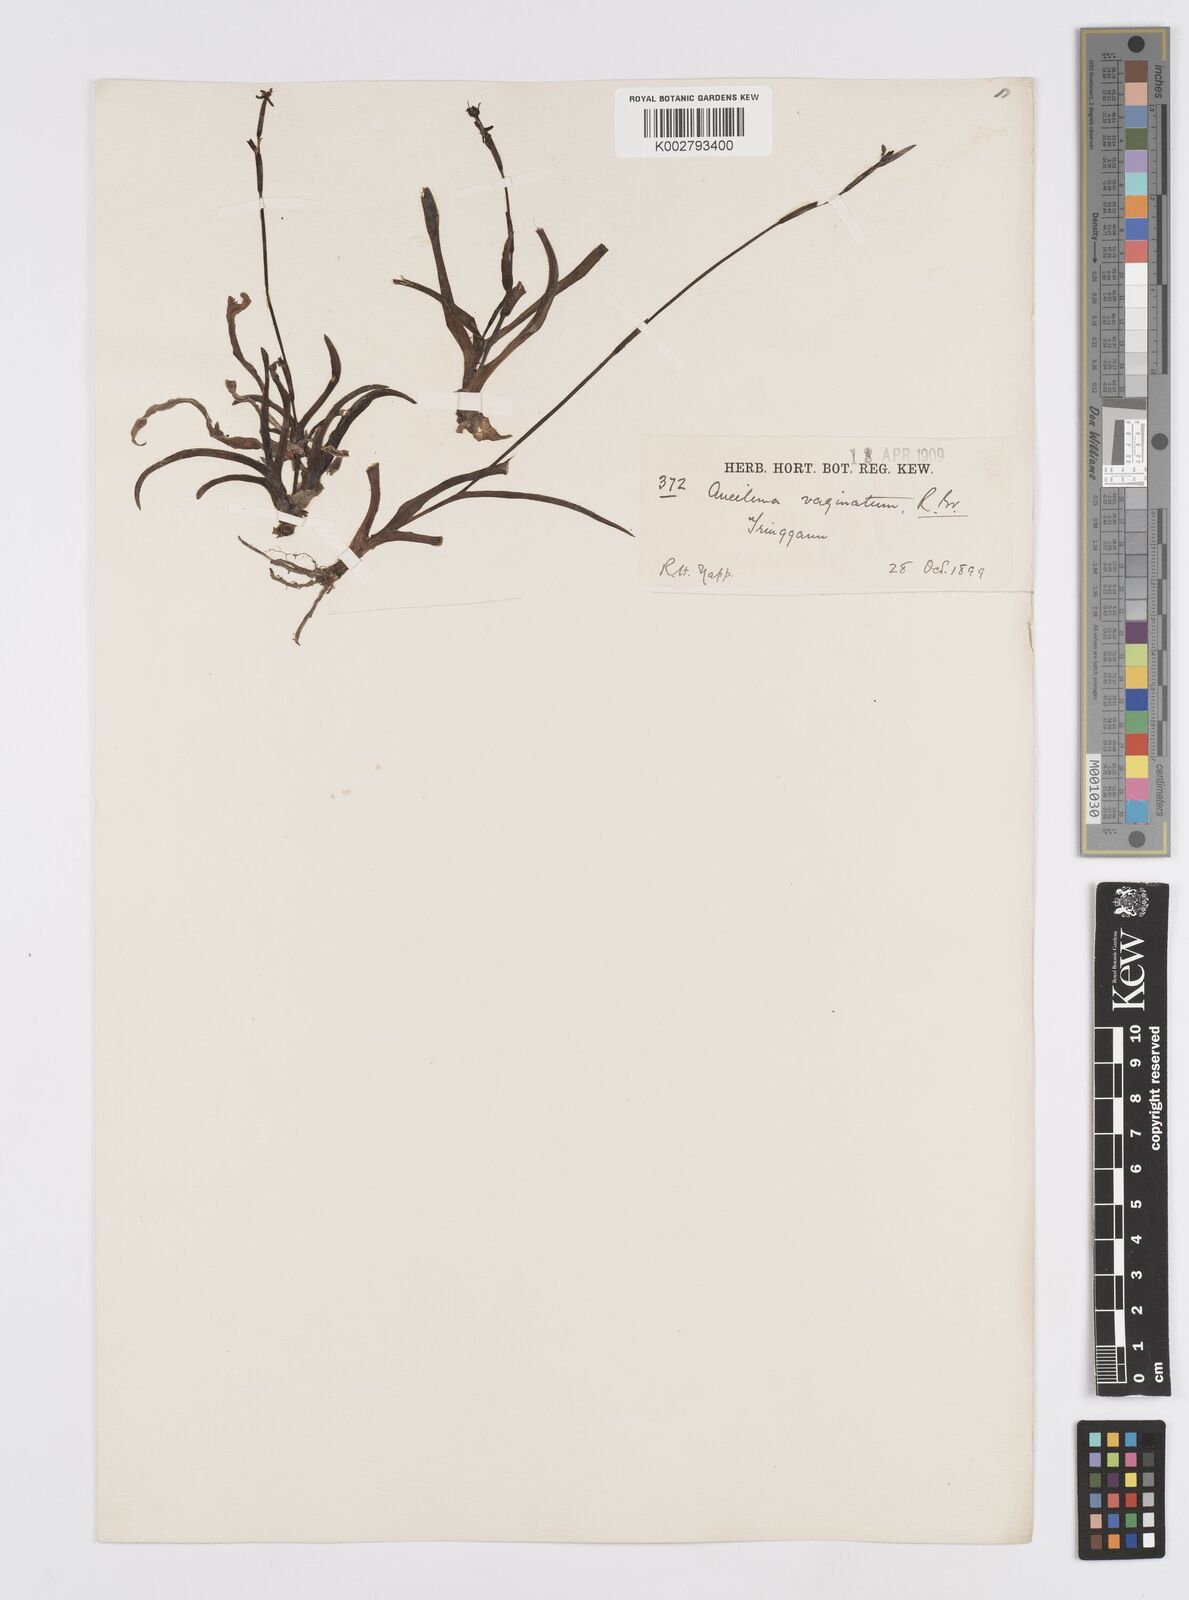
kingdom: Plantae
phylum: Tracheophyta
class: Liliopsida
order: Commelinales
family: Commelinaceae
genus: Murdannia
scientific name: Murdannia vaginata
